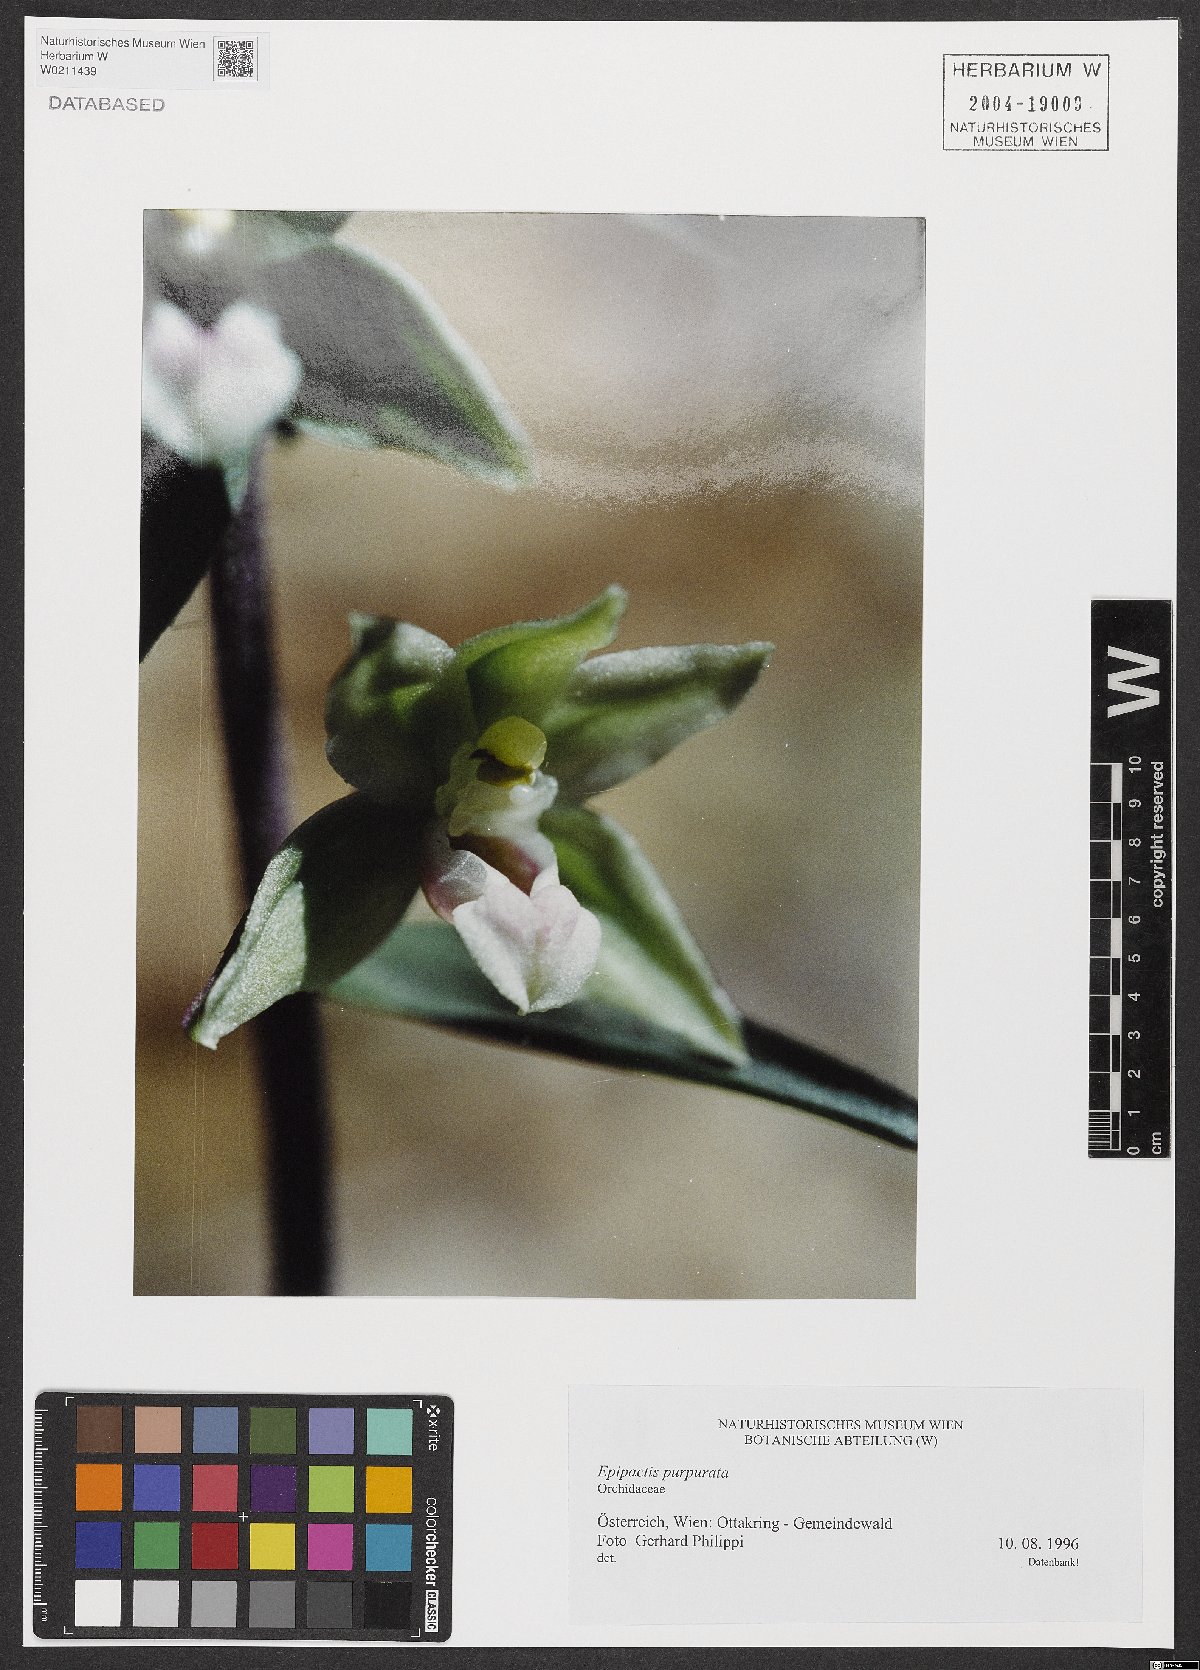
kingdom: Plantae
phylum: Tracheophyta
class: Liliopsida
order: Asparagales
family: Orchidaceae
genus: Epipactis
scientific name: Epipactis purpurata
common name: Violet helleborine
